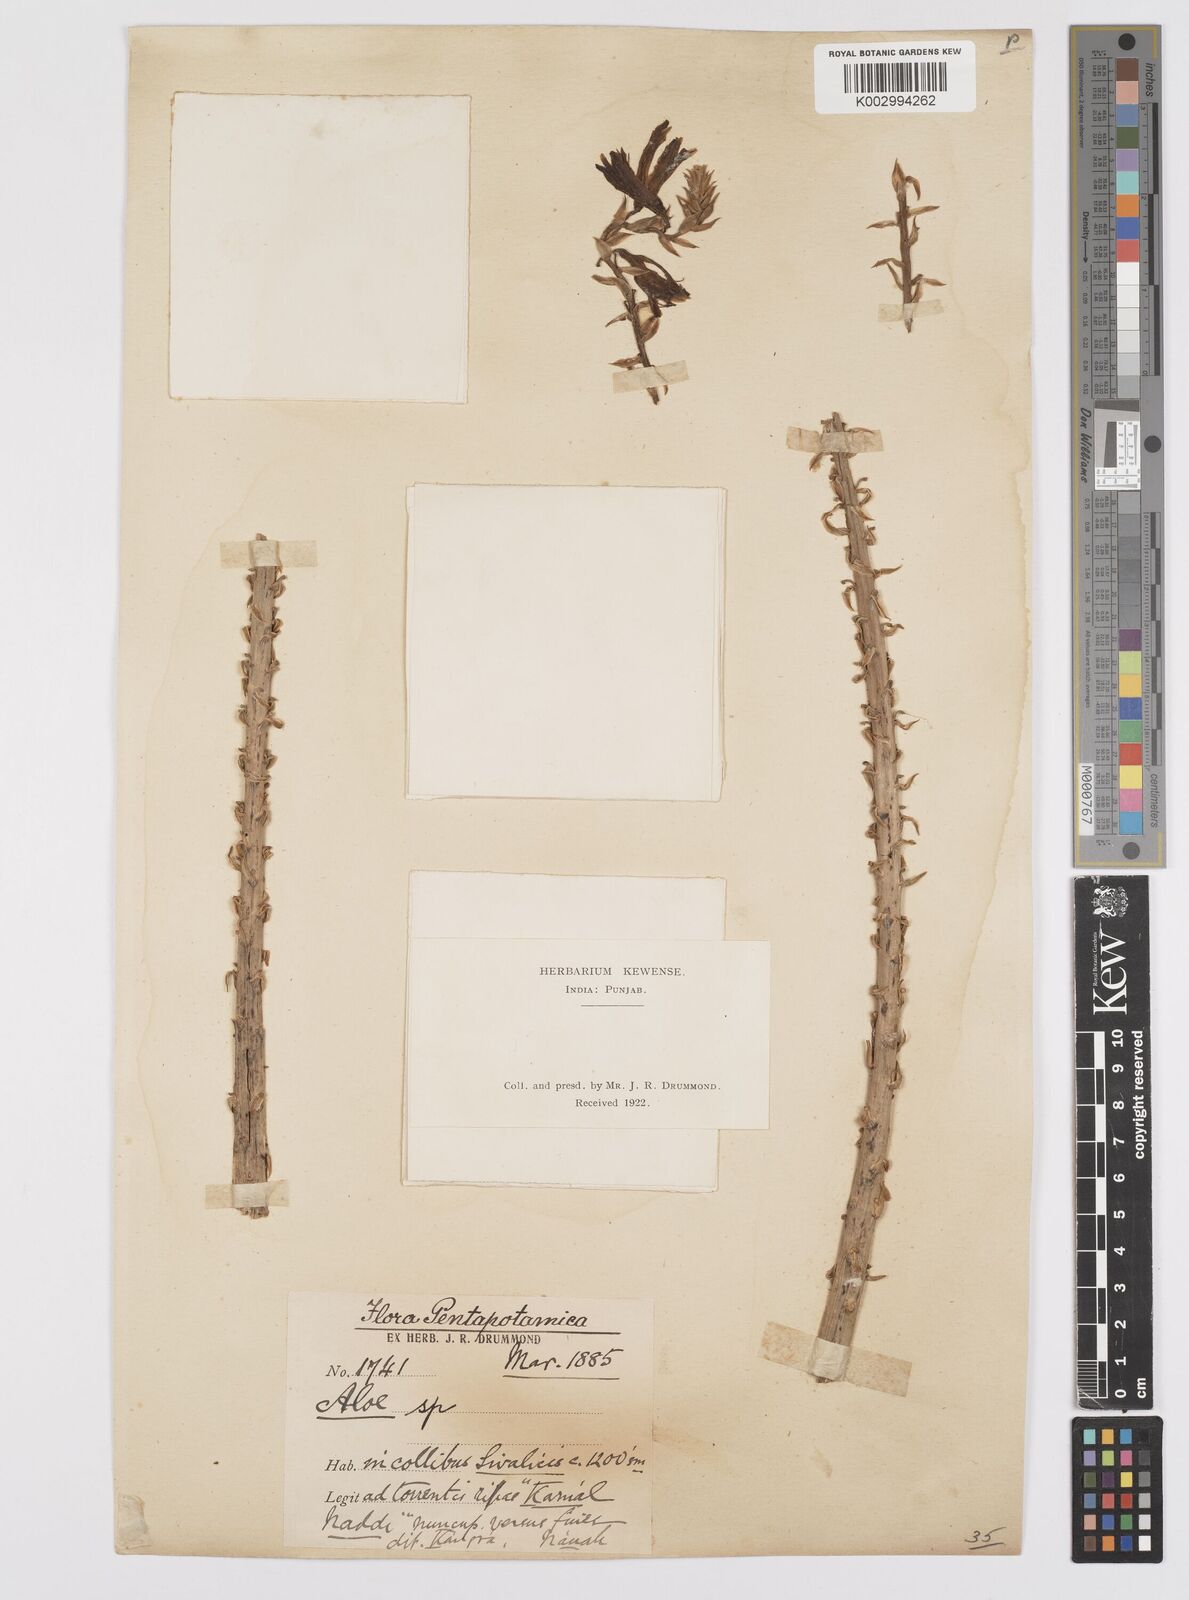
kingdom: Plantae
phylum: Tracheophyta
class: Liliopsida
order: Asparagales
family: Asphodelaceae
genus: Aloe
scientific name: Aloe vera
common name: Barbados aloe
